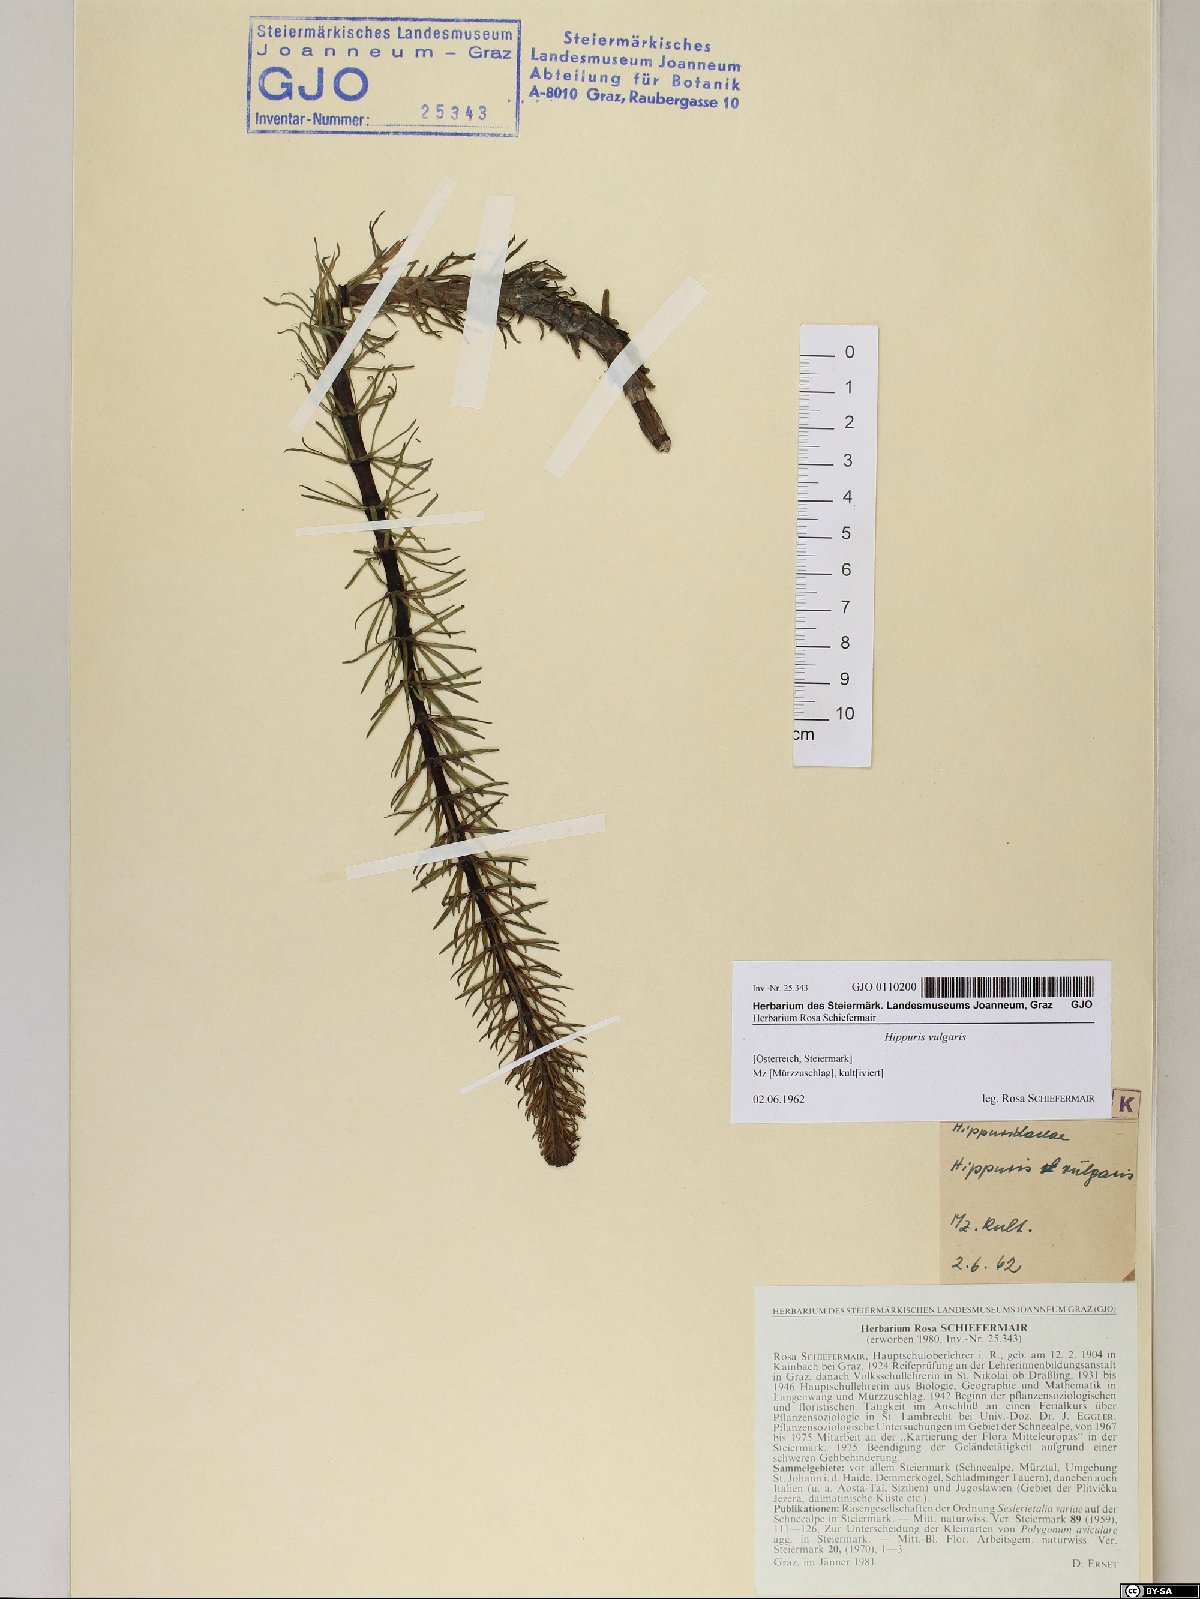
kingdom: Plantae
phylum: Tracheophyta
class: Magnoliopsida
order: Lamiales
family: Plantaginaceae
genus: Hippuris
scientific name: Hippuris vulgaris
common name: Mare's-tail
